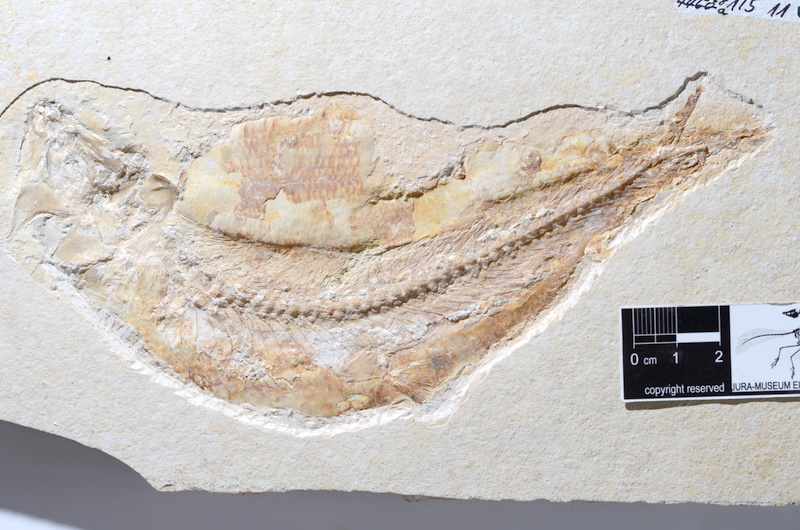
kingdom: Animalia
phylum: Chordata
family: Ascalaboidae
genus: Tharsis
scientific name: Tharsis dubius
